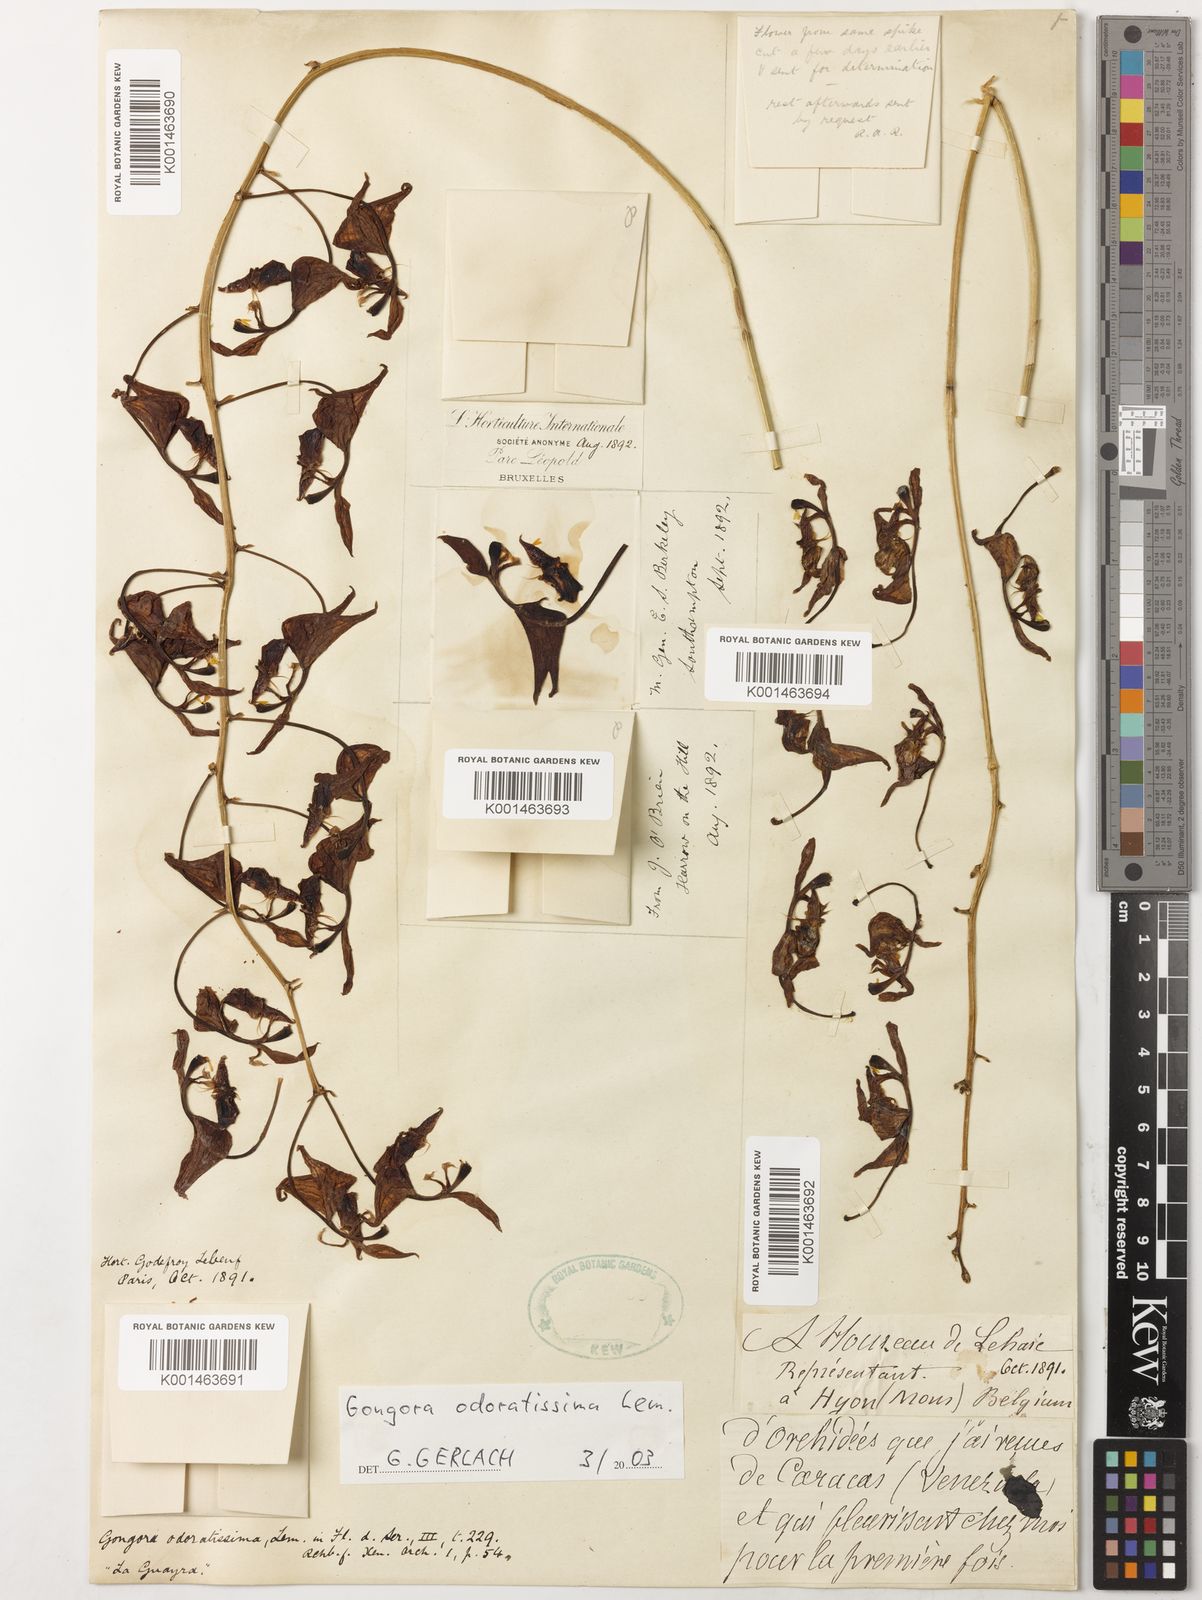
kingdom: Plantae
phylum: Tracheophyta
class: Liliopsida
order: Asparagales
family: Orchidaceae
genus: Gongora
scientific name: Gongora odoratissima
